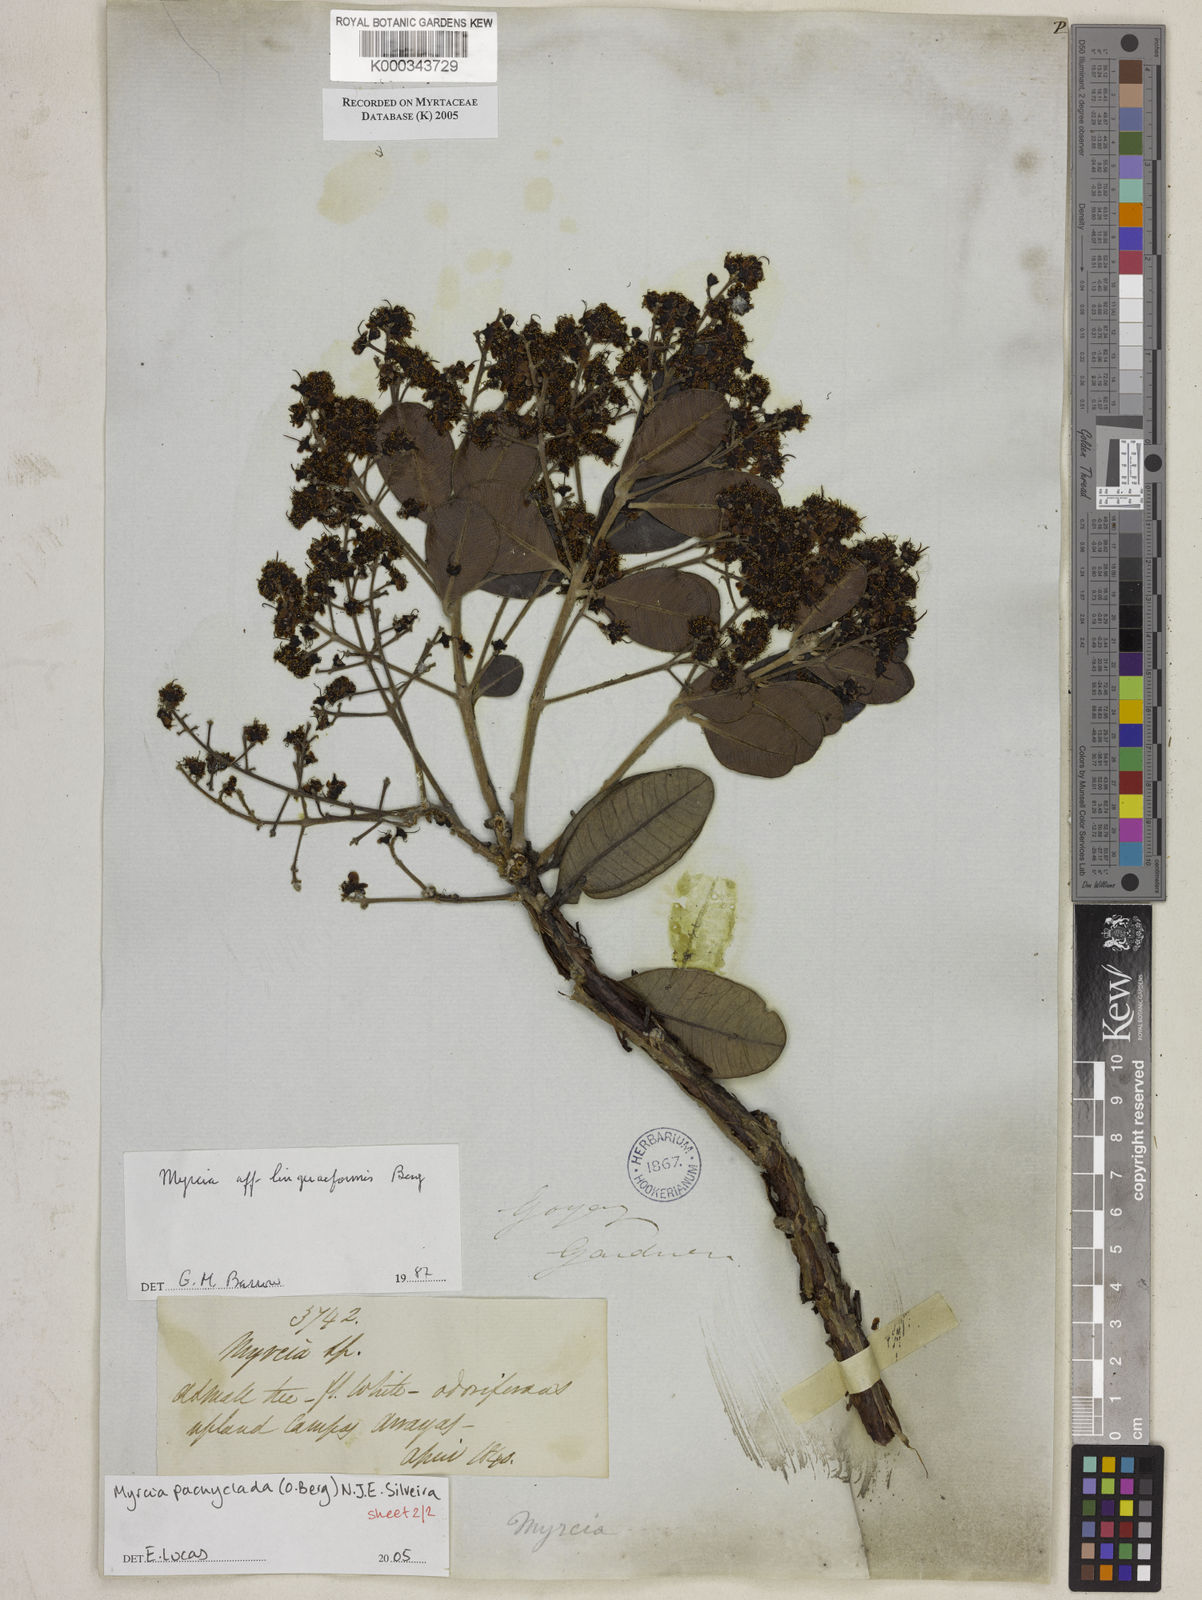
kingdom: Plantae
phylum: Tracheophyta
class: Magnoliopsida
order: Myrtales
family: Myrtaceae
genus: Myrcia
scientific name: Myrcia vestita
